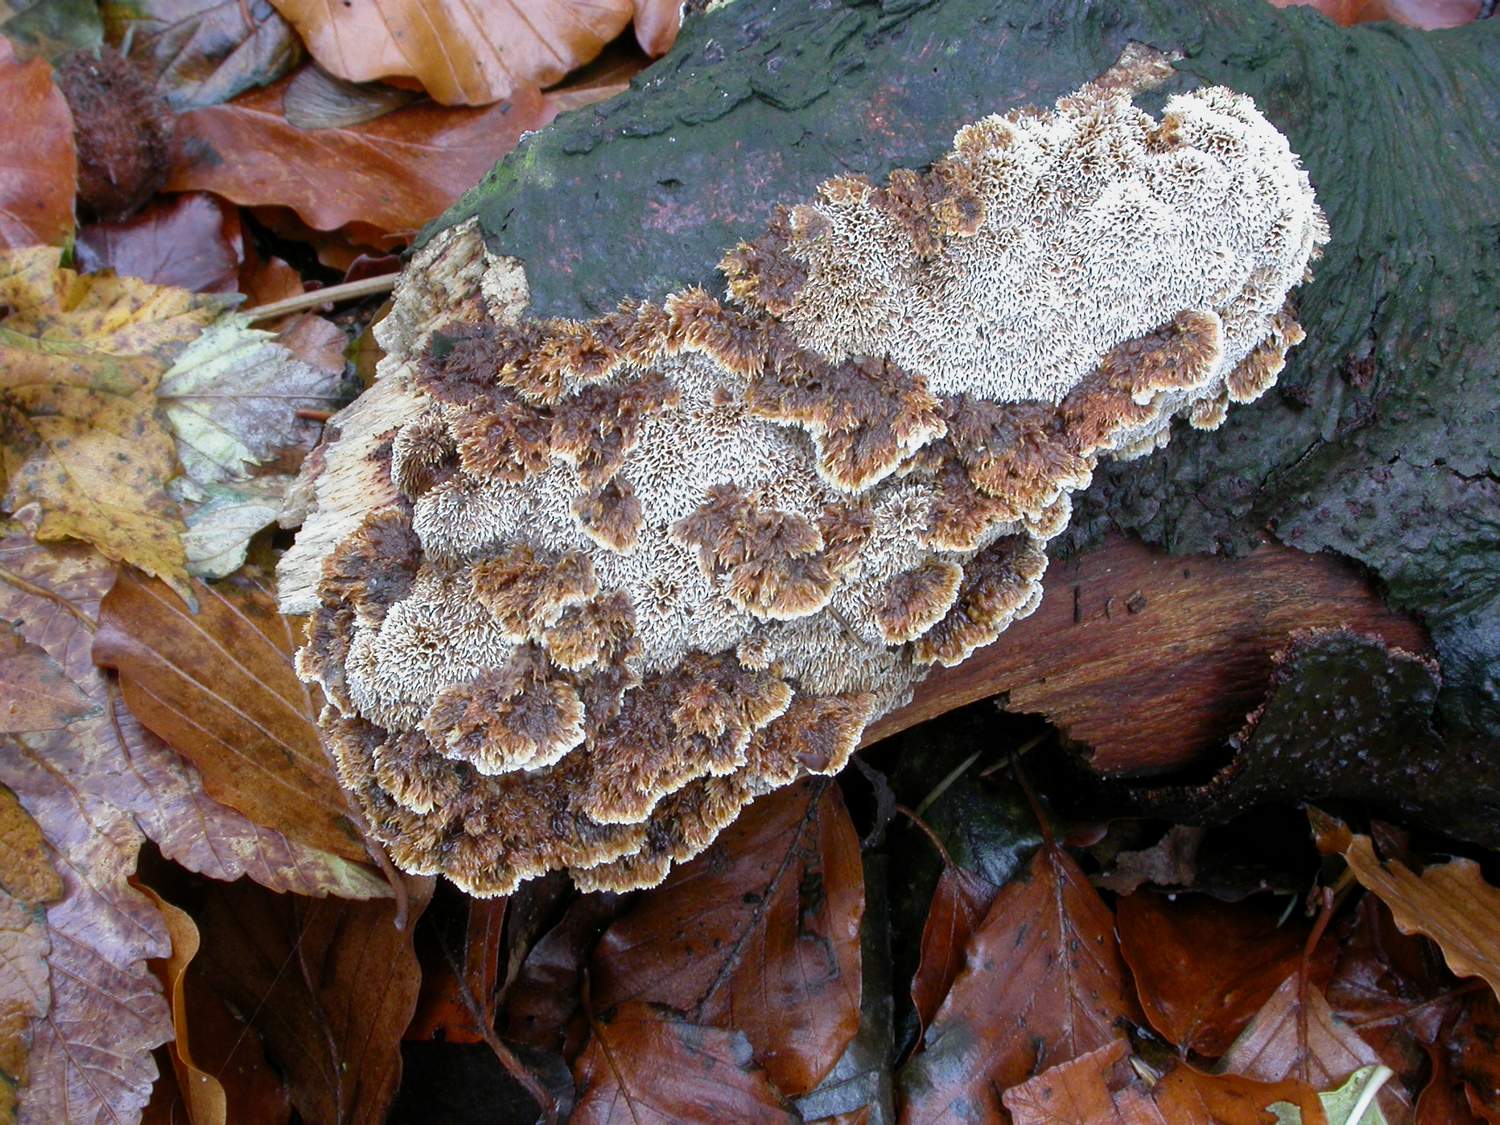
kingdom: Fungi
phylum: Basidiomycota
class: Agaricomycetes
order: Hymenochaetales
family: Hymenochaetaceae
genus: Mensularia
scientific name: Mensularia nodulosa
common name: bøge-spejlporesvamp
